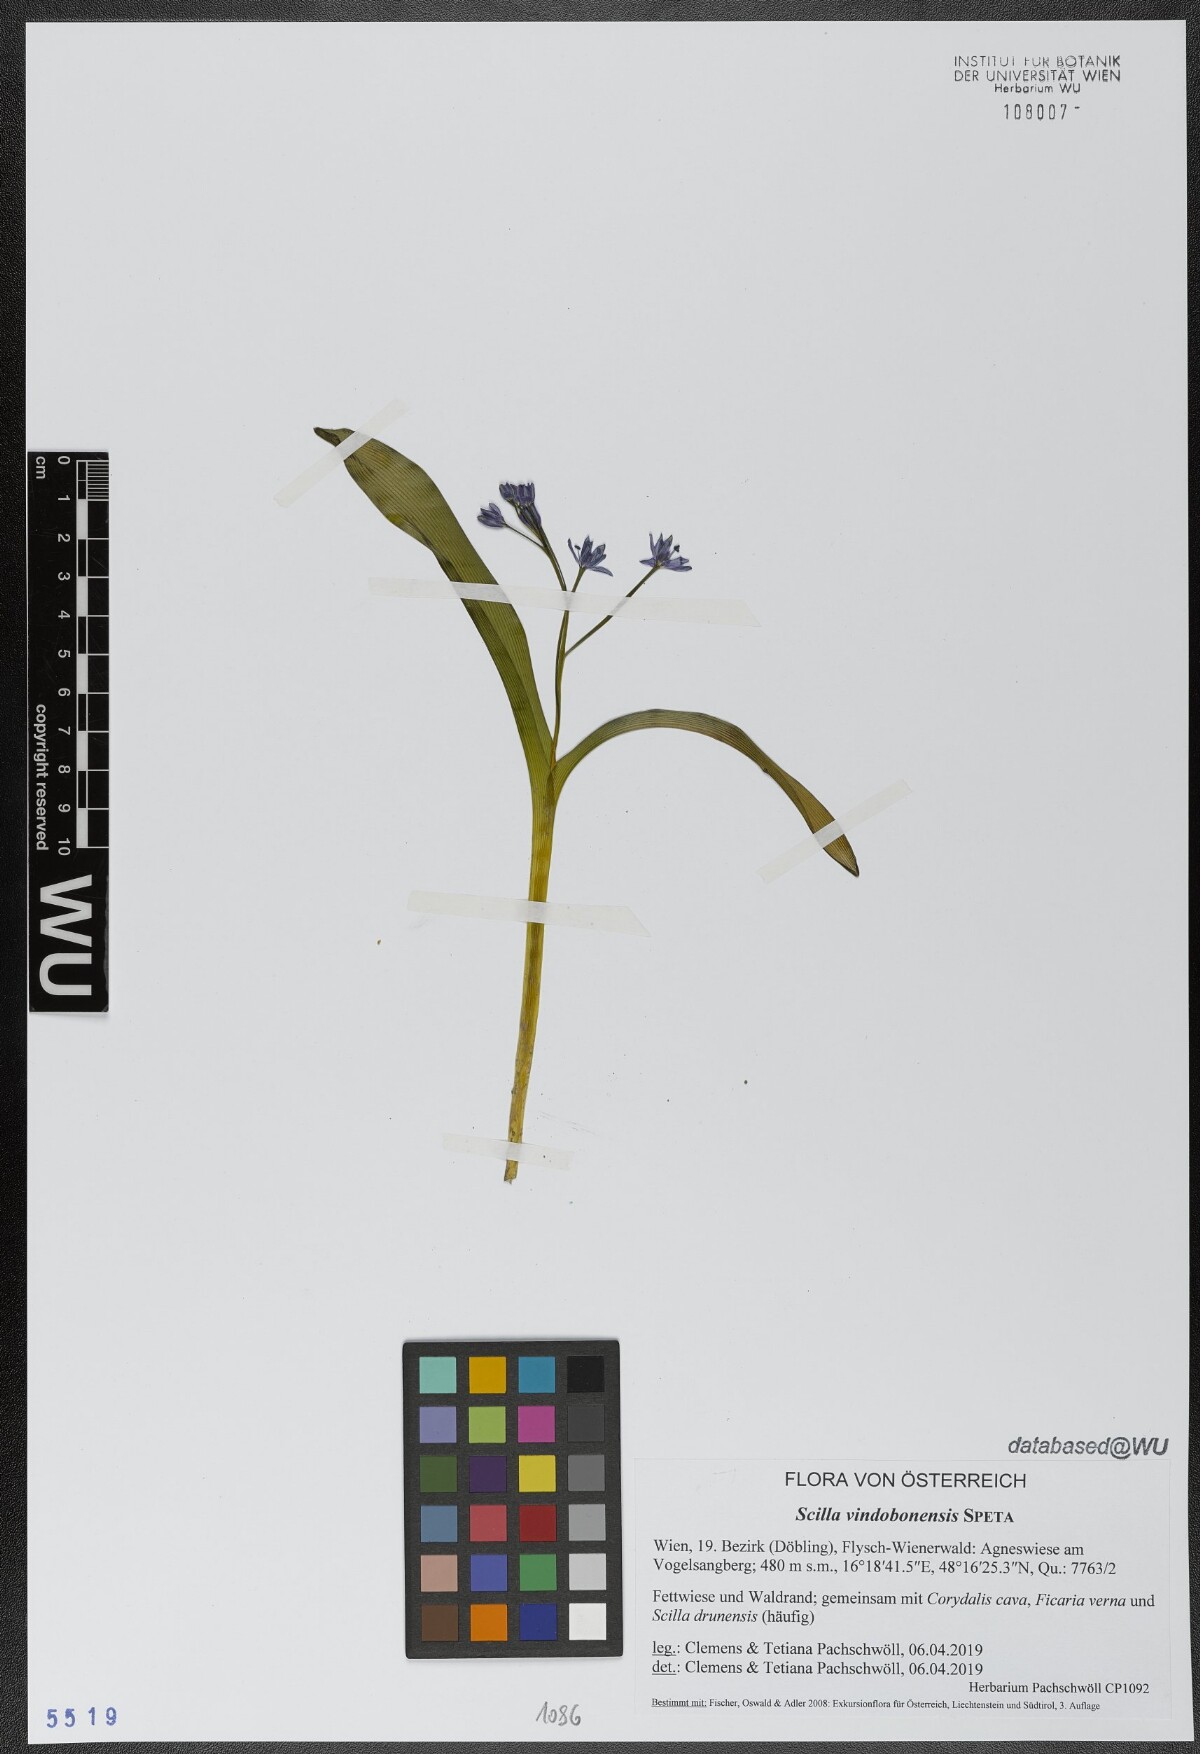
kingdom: Plantae
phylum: Tracheophyta
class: Liliopsida
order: Asparagales
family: Asparagaceae
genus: Scilla
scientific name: Scilla vindobonensis
